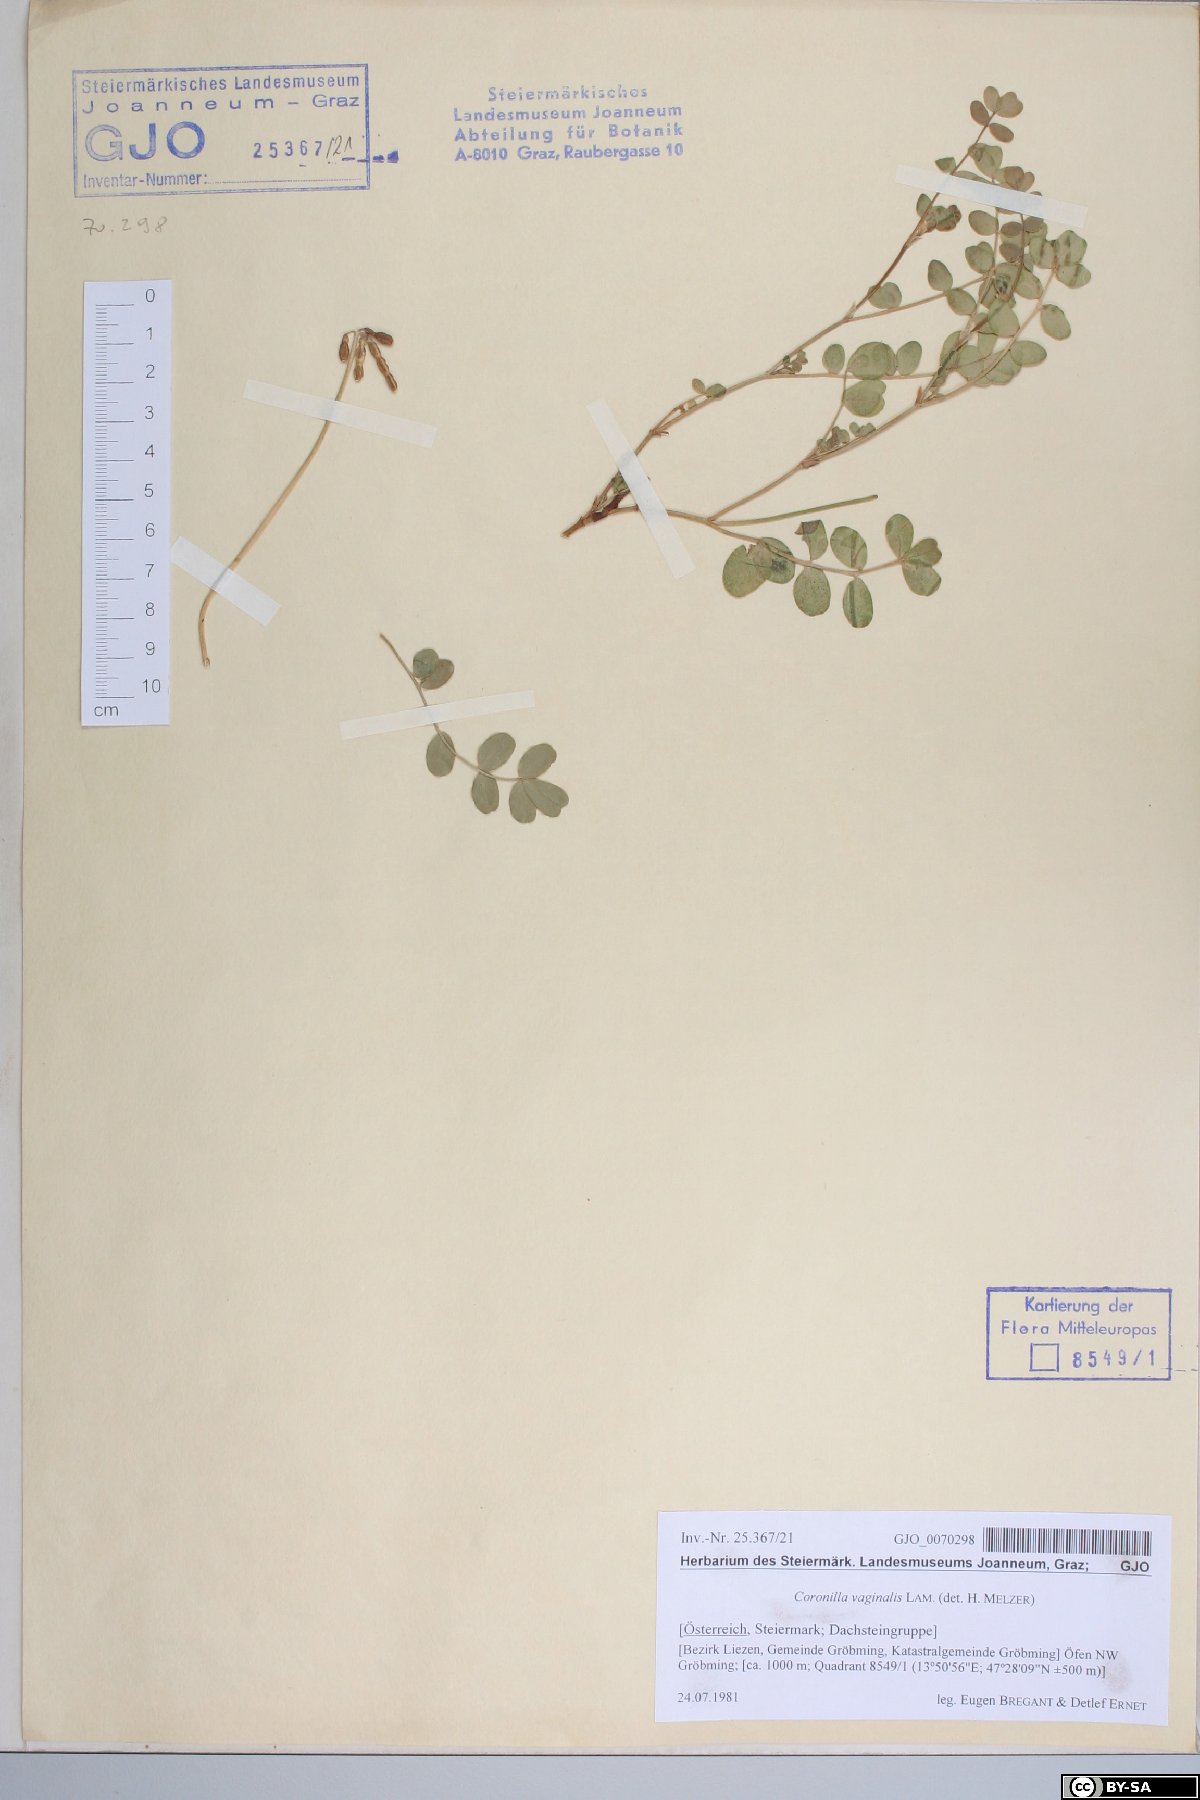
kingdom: Plantae
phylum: Tracheophyta
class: Magnoliopsida
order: Fabales
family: Fabaceae
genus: Coronilla
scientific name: Coronilla vaginalis
